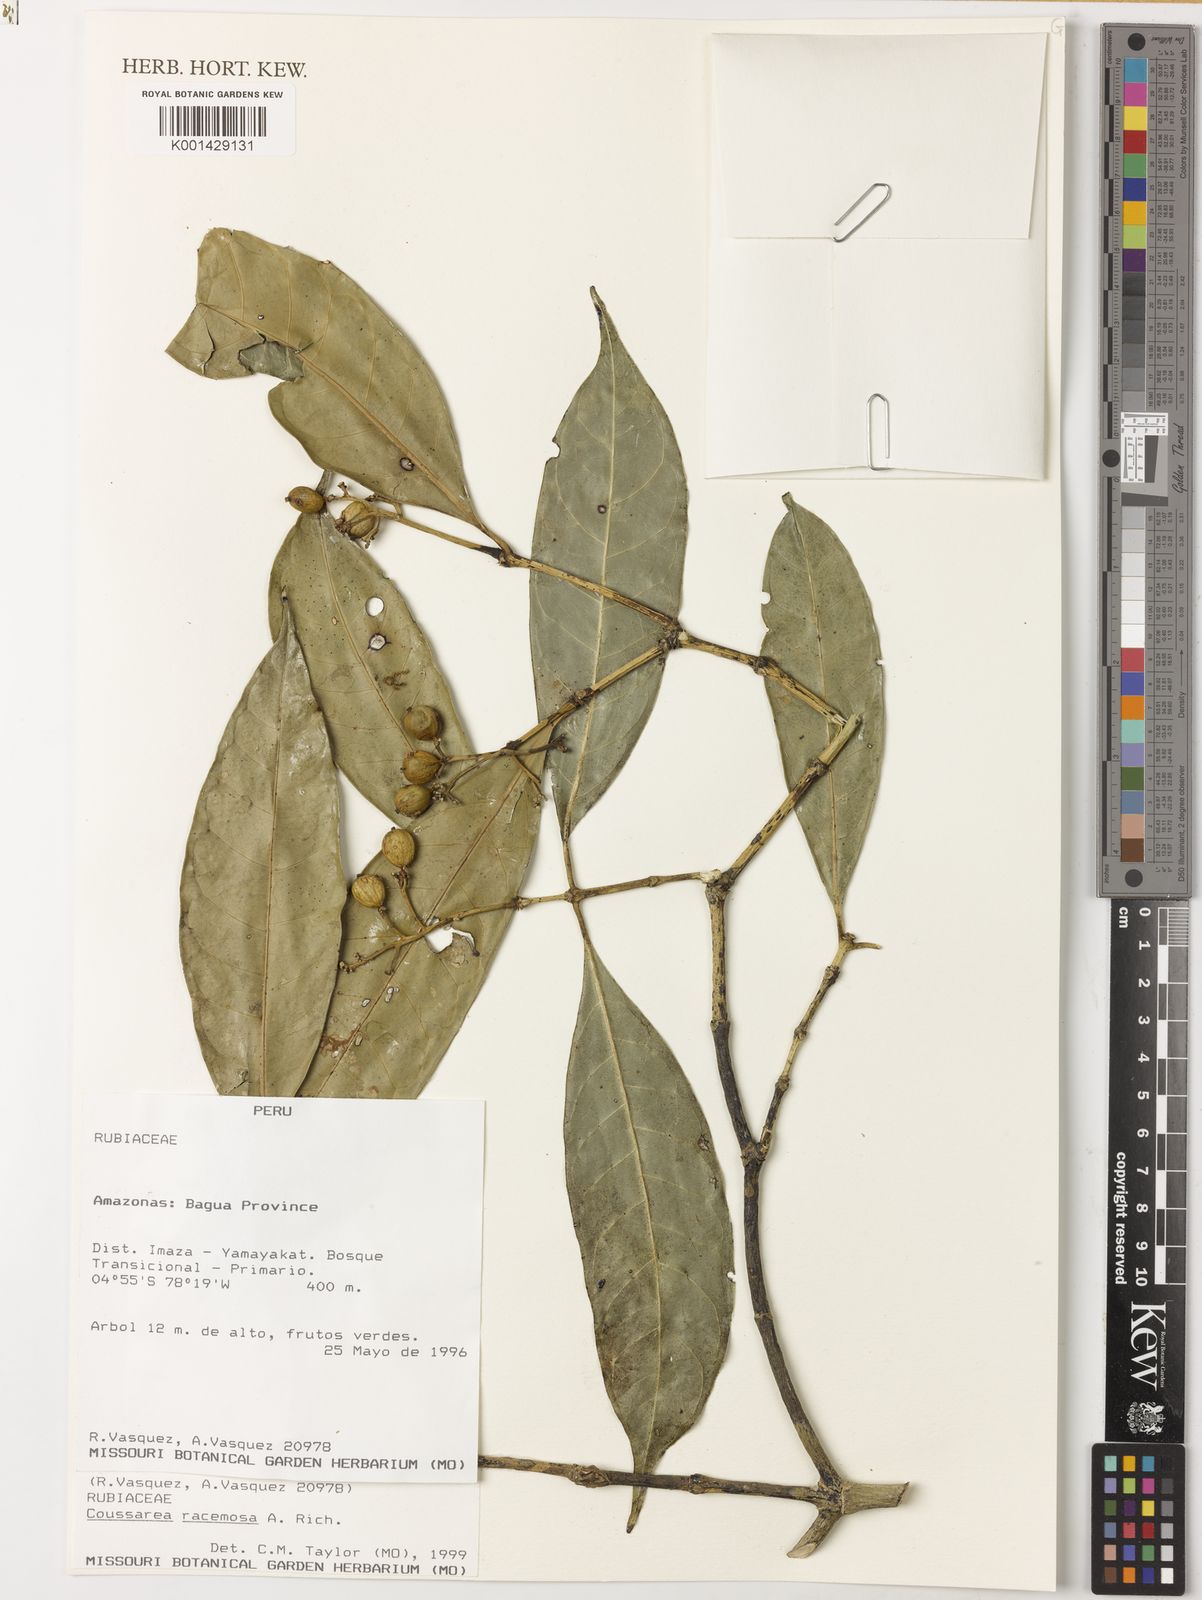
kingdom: Plantae
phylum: Tracheophyta
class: Magnoliopsida
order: Gentianales
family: Rubiaceae
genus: Coussarea
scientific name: Coussarea
